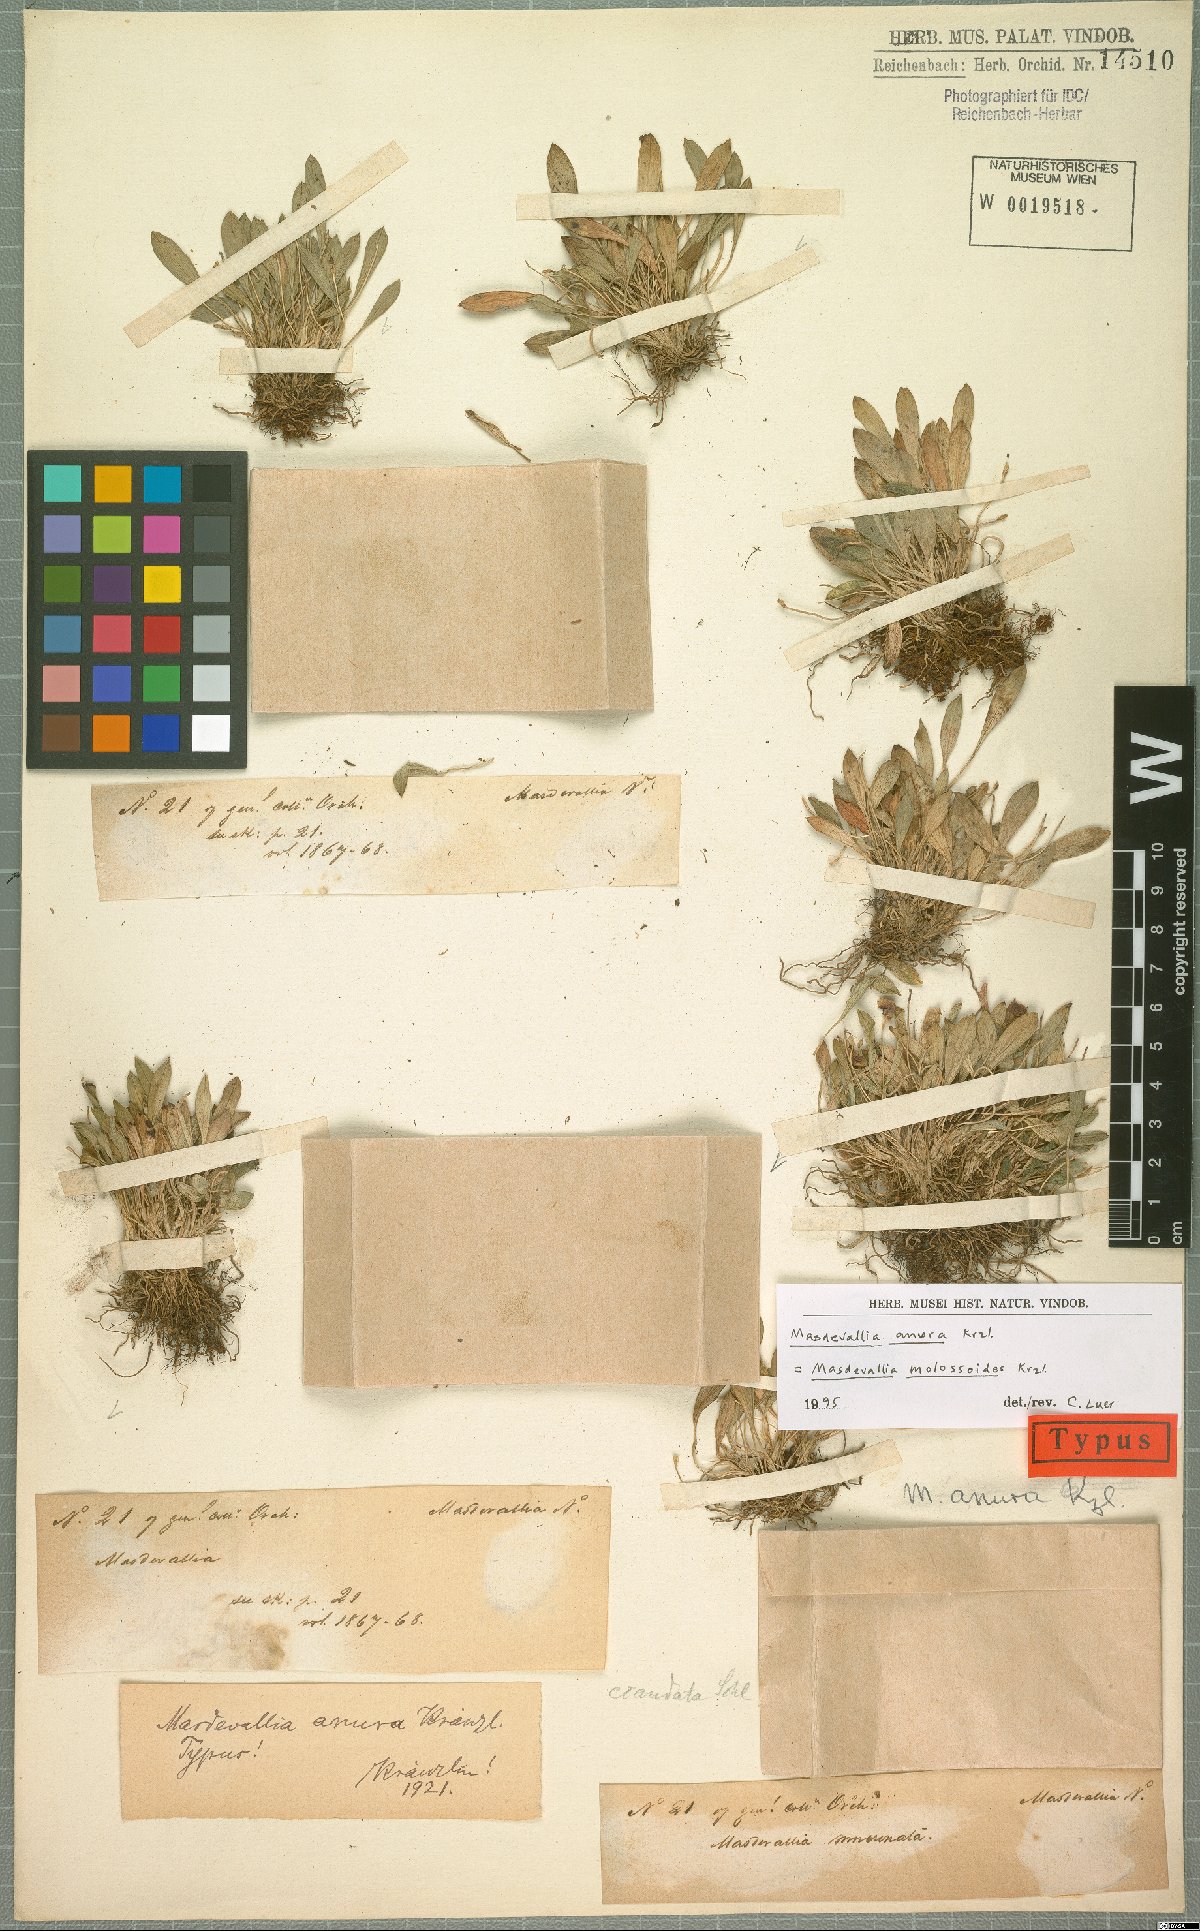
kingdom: Plantae
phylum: Tracheophyta
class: Liliopsida
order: Asparagales
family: Orchidaceae
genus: Masdevallia
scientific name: Masdevallia molossoides
